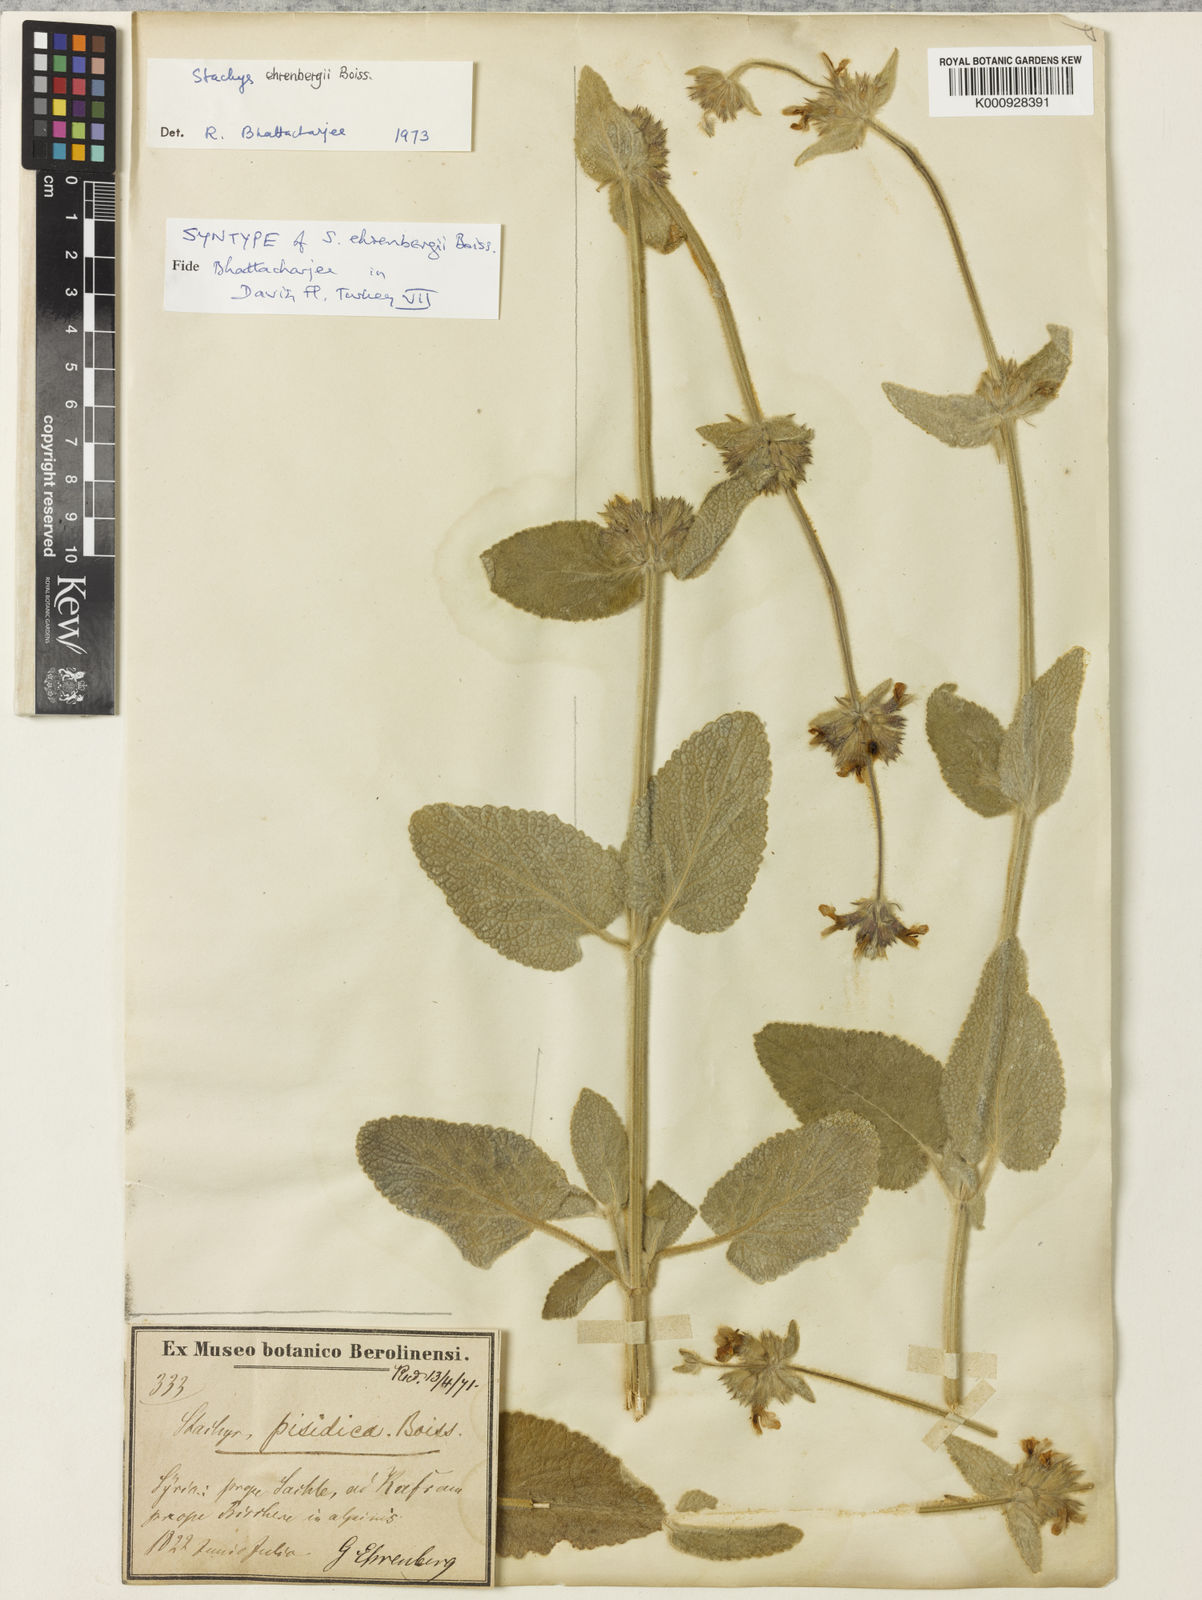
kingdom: Plantae
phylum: Tracheophyta
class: Magnoliopsida
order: Lamiales
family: Lamiaceae
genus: Stachys
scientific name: Stachys ehrenbergii
